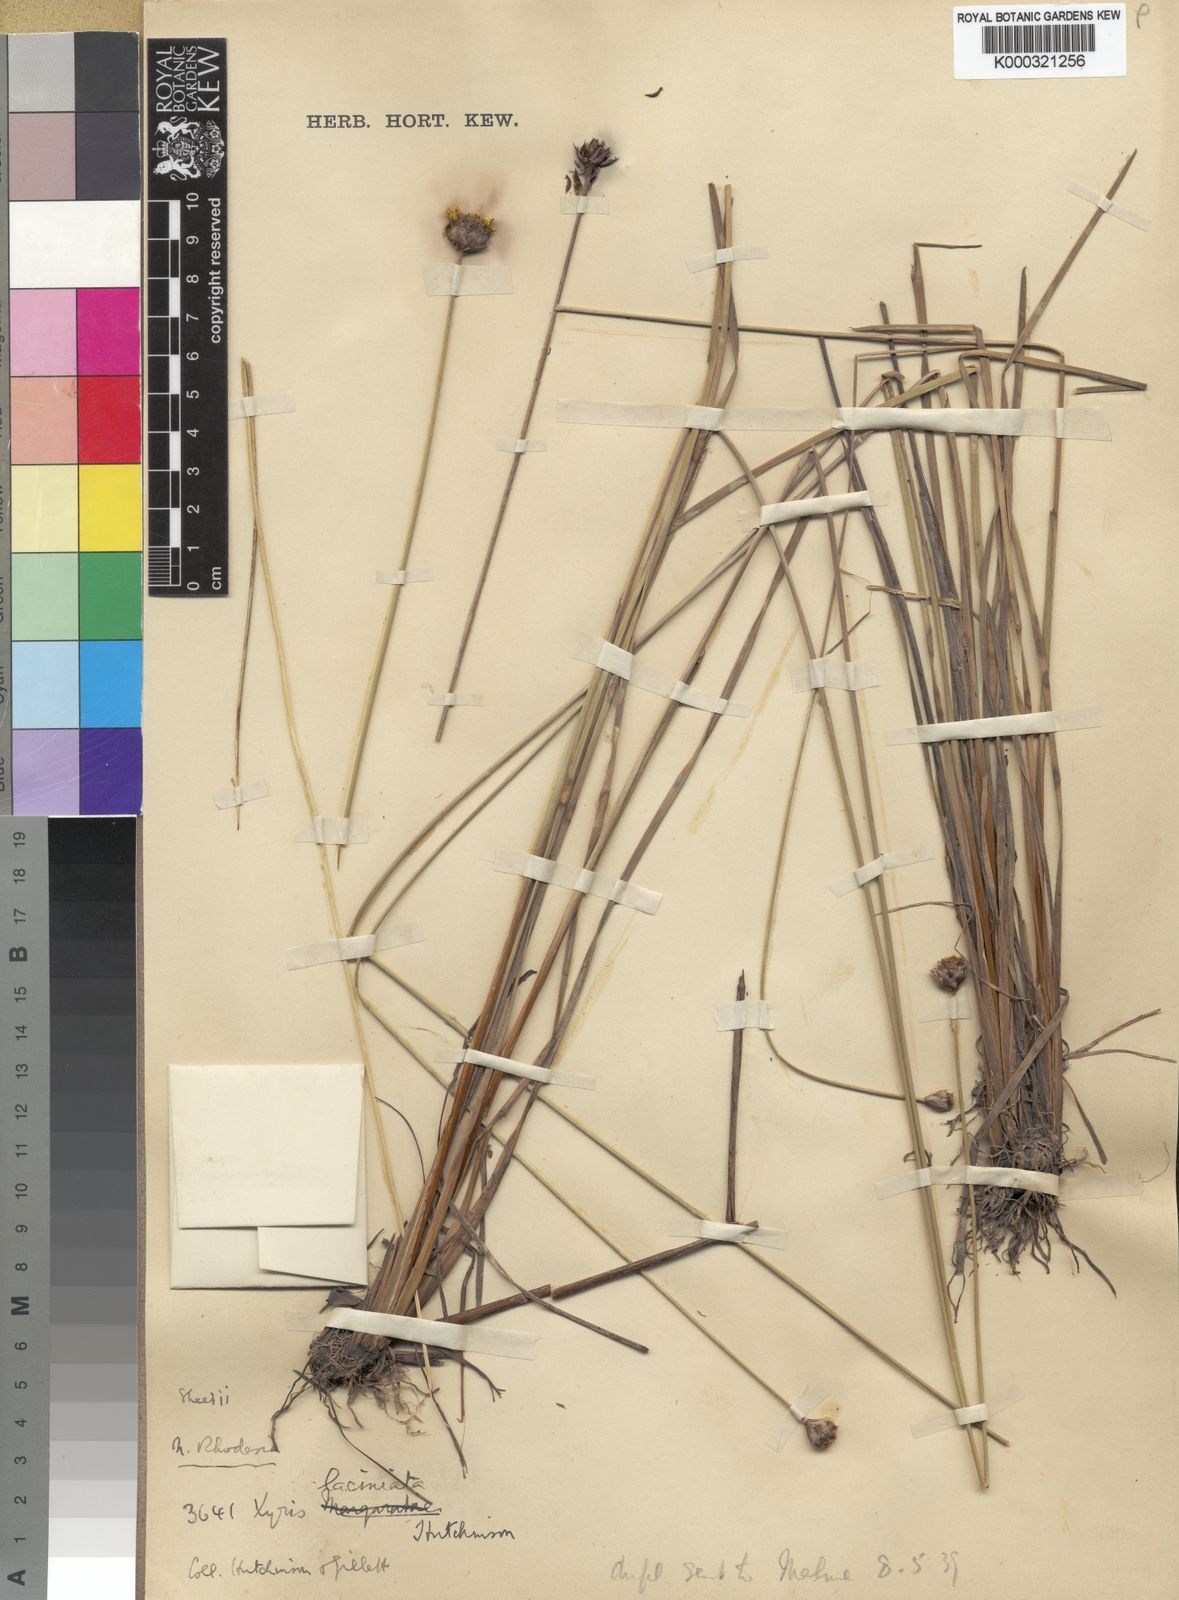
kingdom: Plantae
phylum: Tracheophyta
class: Liliopsida
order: Poales
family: Xyridaceae
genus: Xyris
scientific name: Xyris aristata
